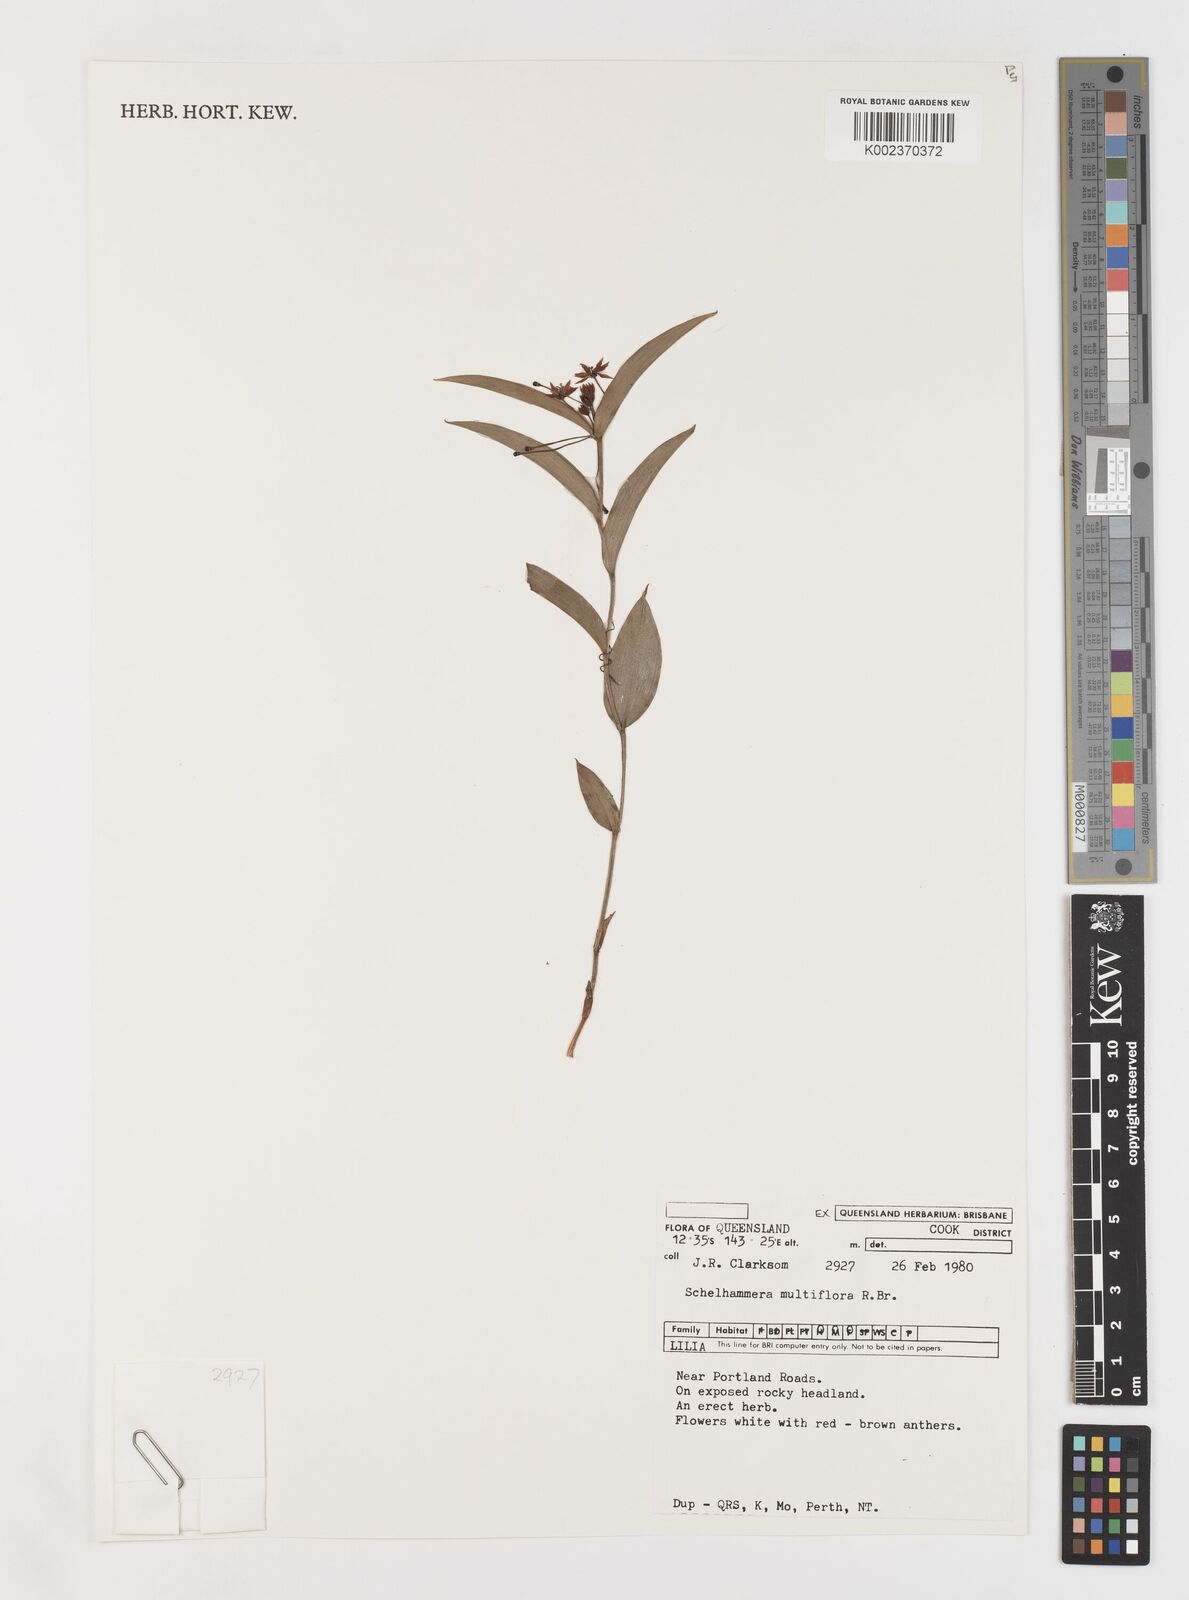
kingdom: Plantae
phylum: Tracheophyta
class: Liliopsida
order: Liliales
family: Colchicaceae
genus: Schelhammera
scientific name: Schelhammera multiflora
